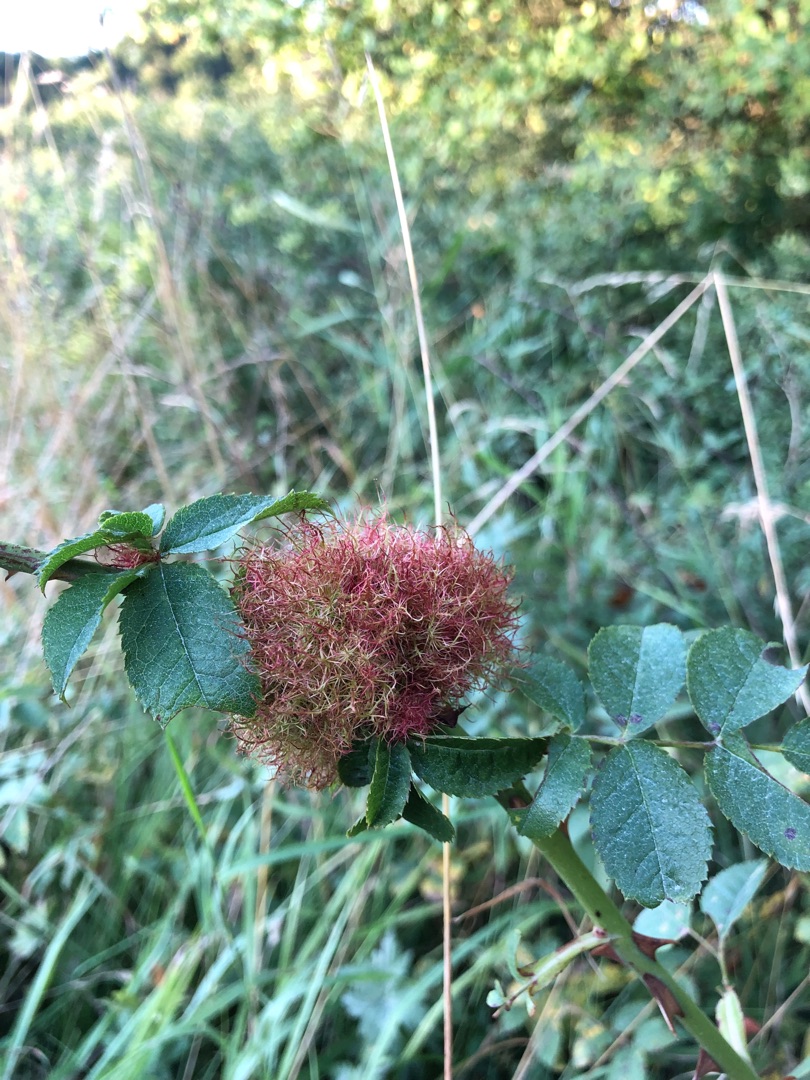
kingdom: Animalia
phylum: Arthropoda
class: Insecta
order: Hymenoptera
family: Cynipidae
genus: Diplolepis
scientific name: Diplolepis rosae
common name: Bedeguargalhveps
